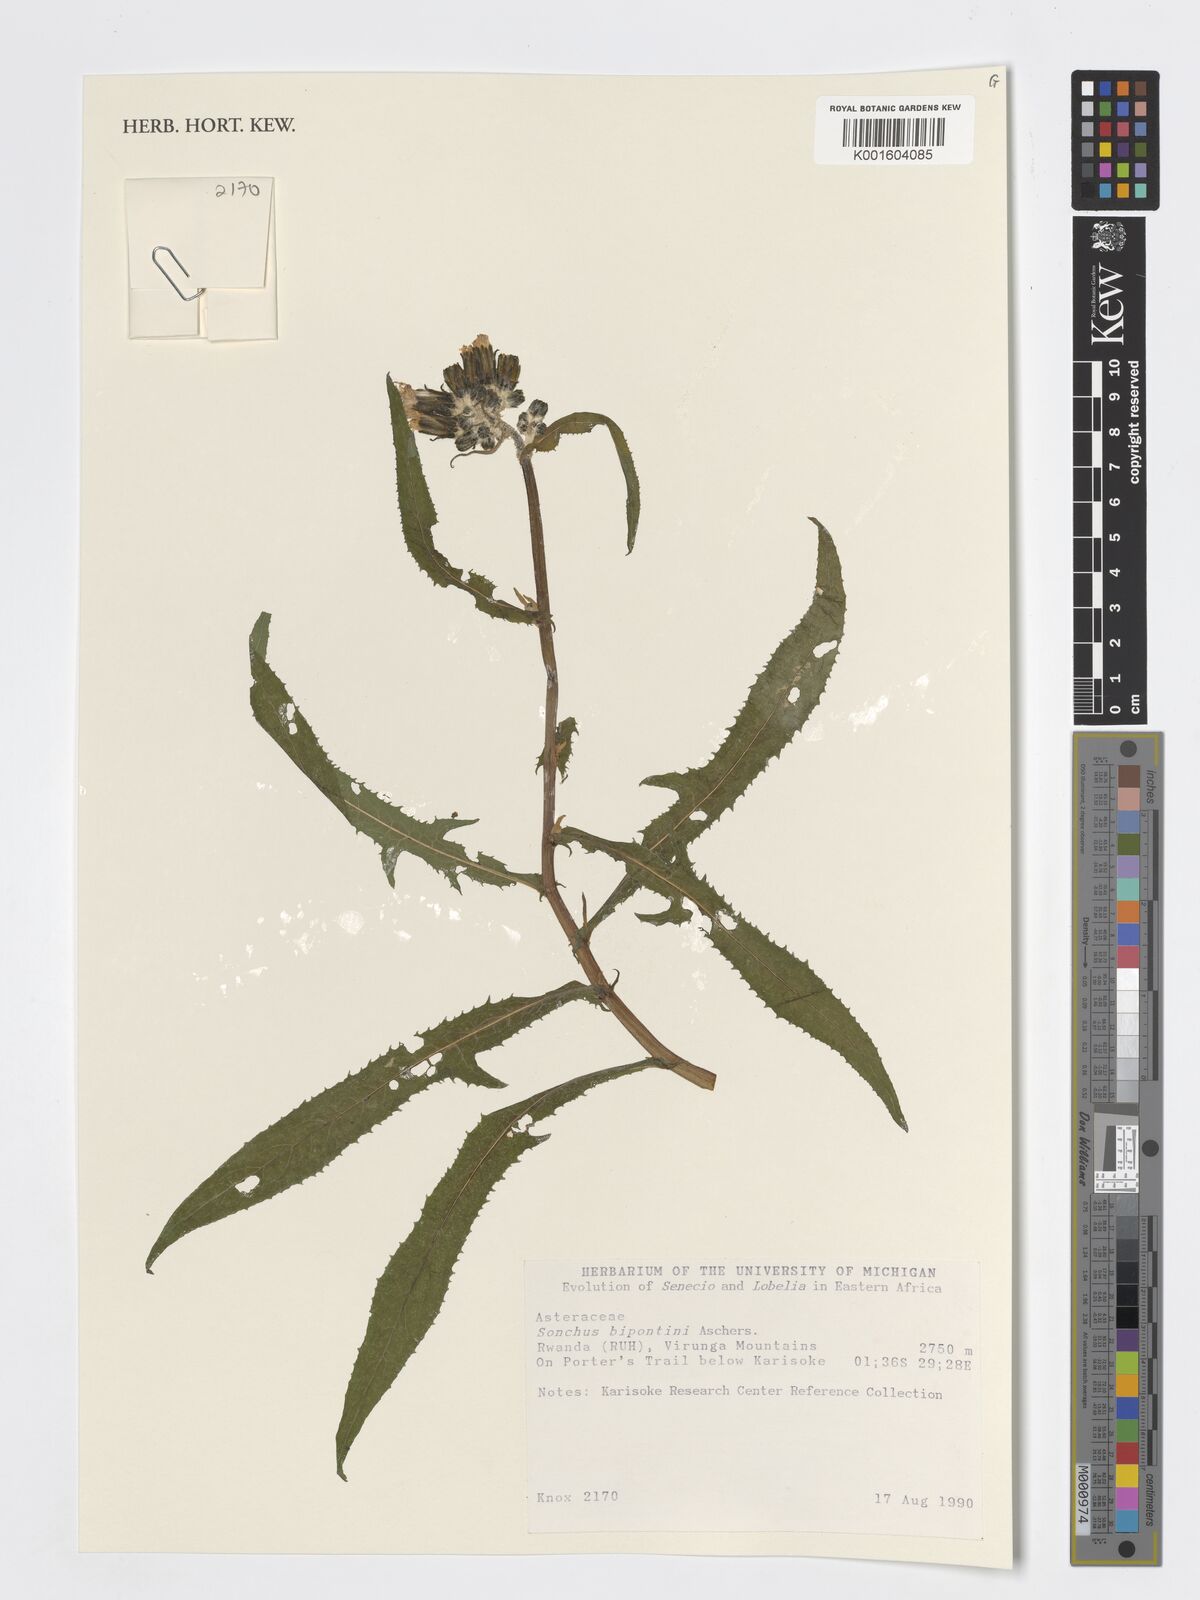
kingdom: Plantae
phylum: Tracheophyta
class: Magnoliopsida
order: Asterales
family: Asteraceae
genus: Sonchus
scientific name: Sonchus bipontini
